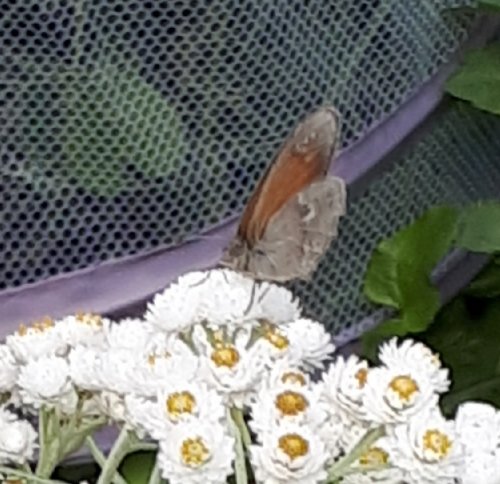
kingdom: Animalia
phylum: Arthropoda
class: Insecta
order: Lepidoptera
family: Nymphalidae
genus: Coenonympha
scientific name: Coenonympha tullia
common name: Large Heath
